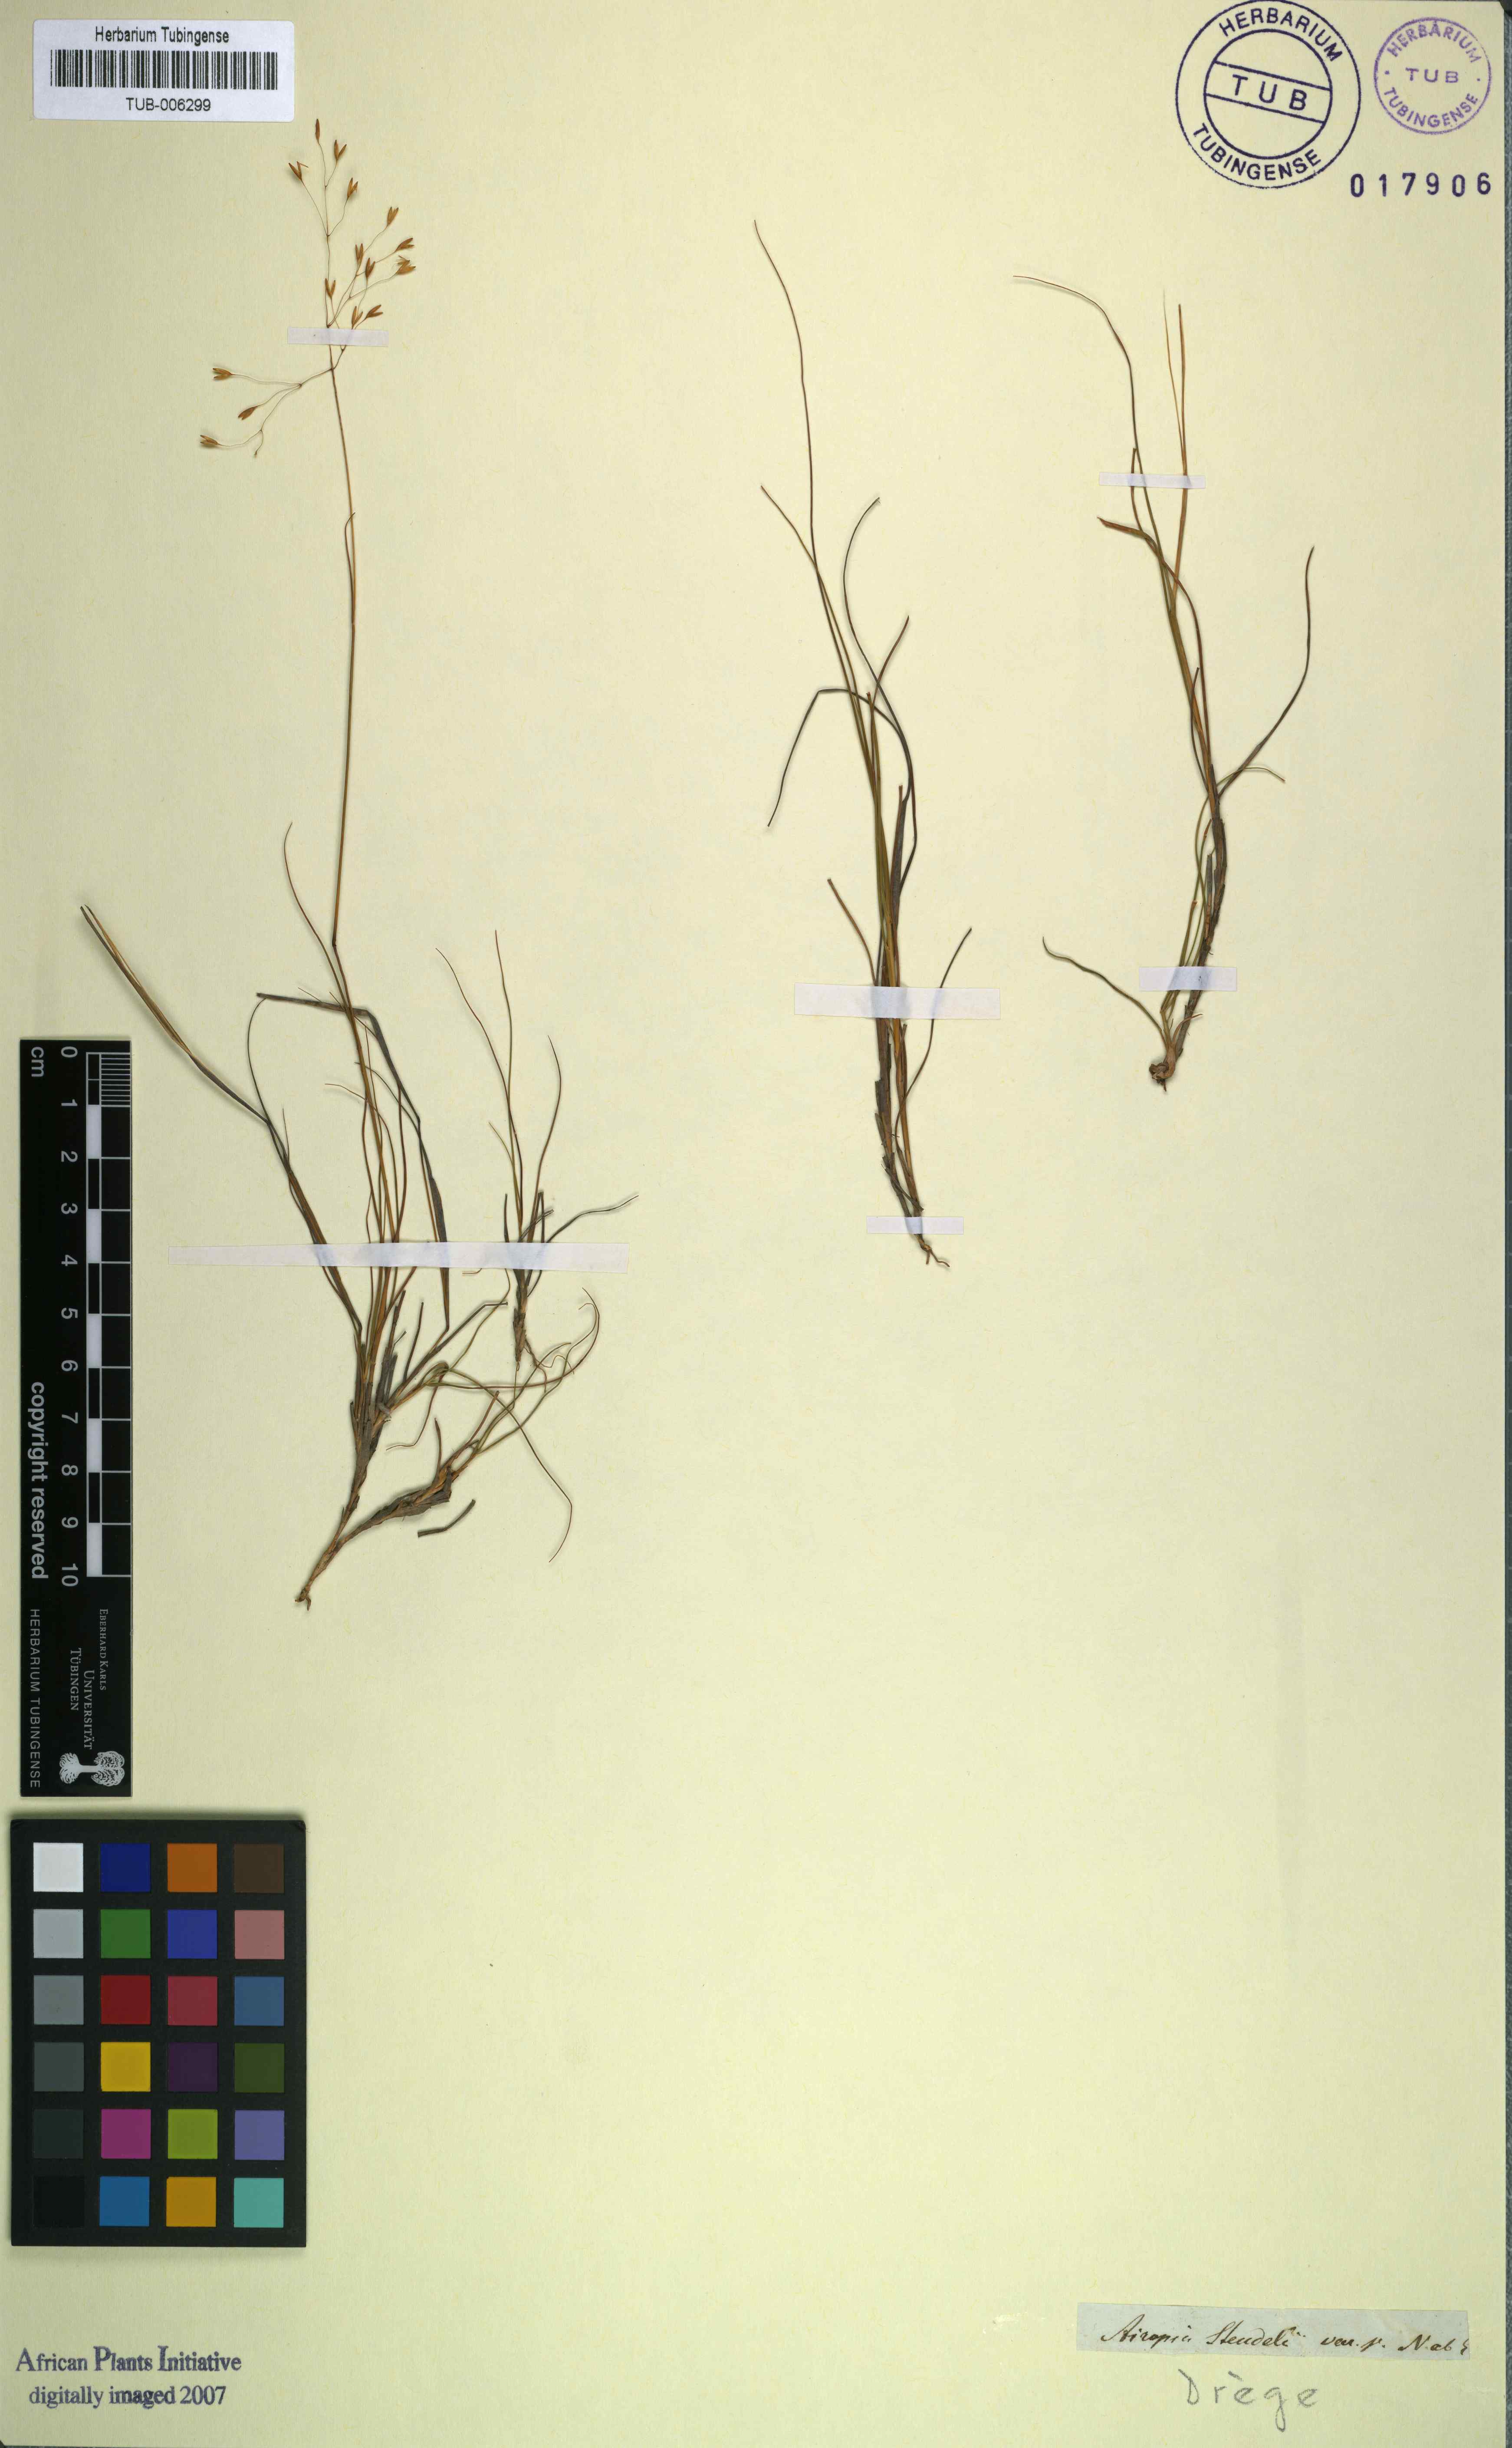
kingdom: Plantae
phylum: Tracheophyta
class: Liliopsida
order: Poales
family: Poaceae
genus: Pentameris
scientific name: Pentameris malouinensis
